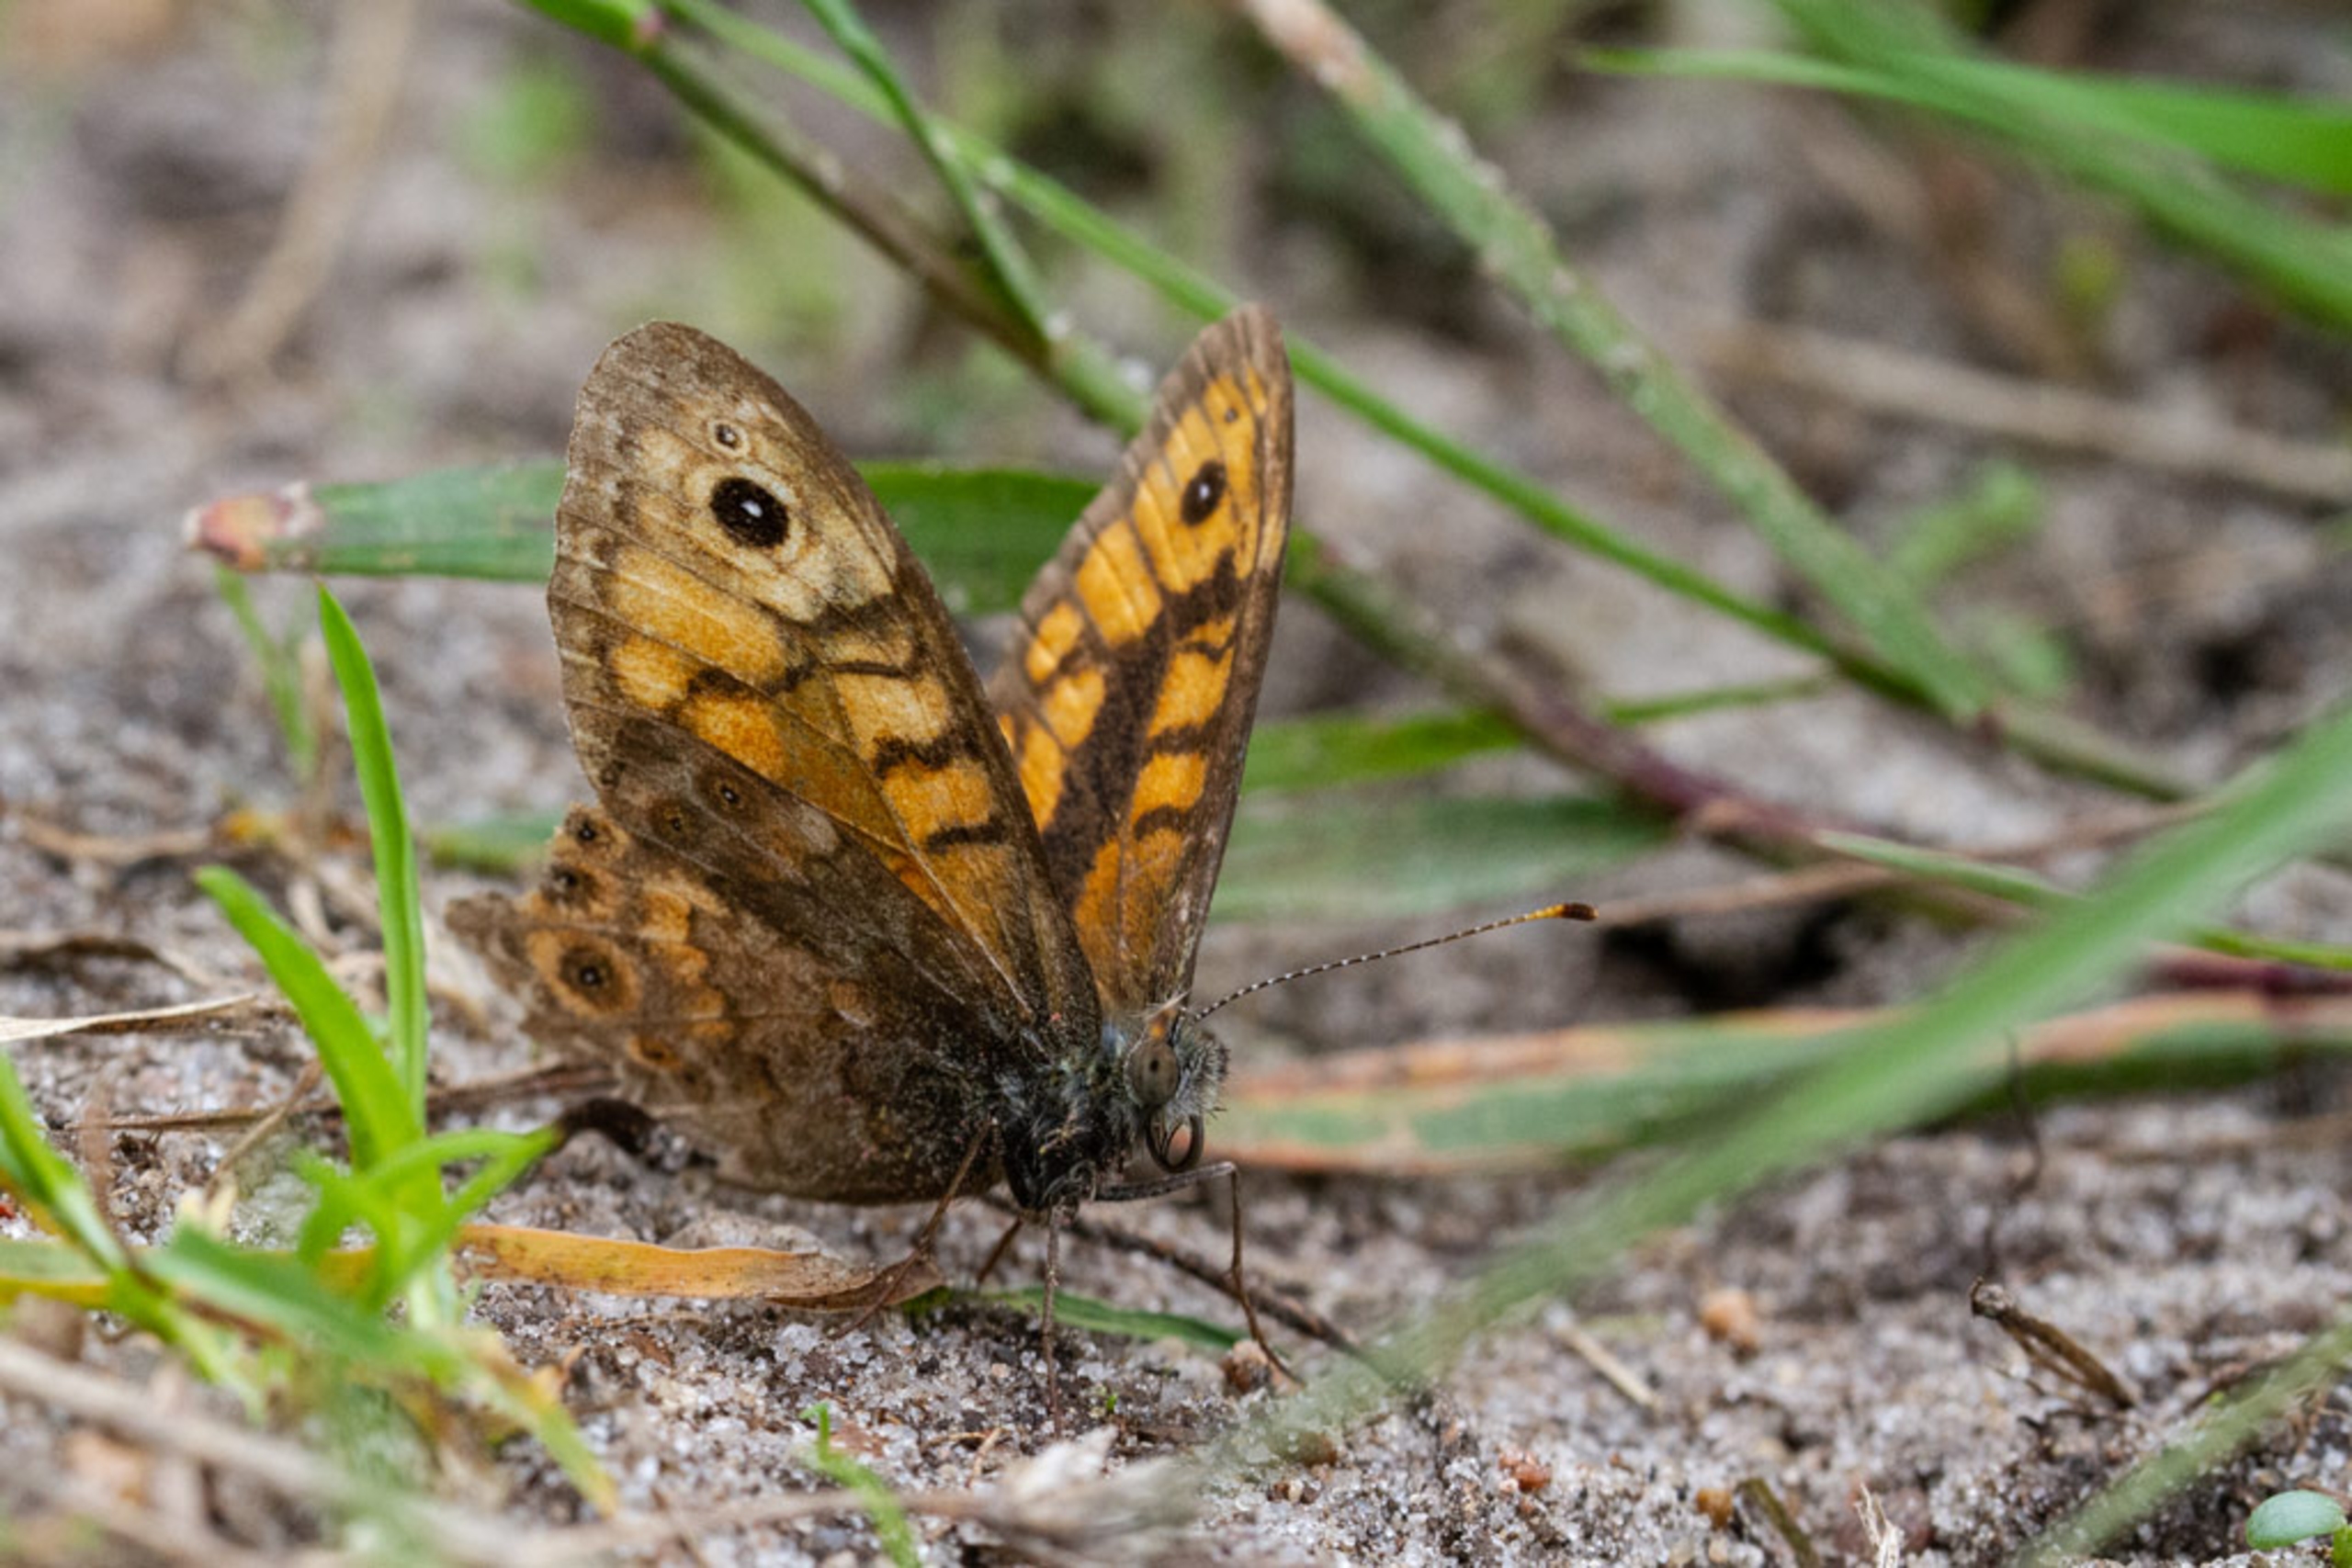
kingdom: Animalia
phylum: Arthropoda
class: Insecta
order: Lepidoptera
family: Nymphalidae
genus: Pararge
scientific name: Pararge Lasiommata megera
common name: Vejrandøje
